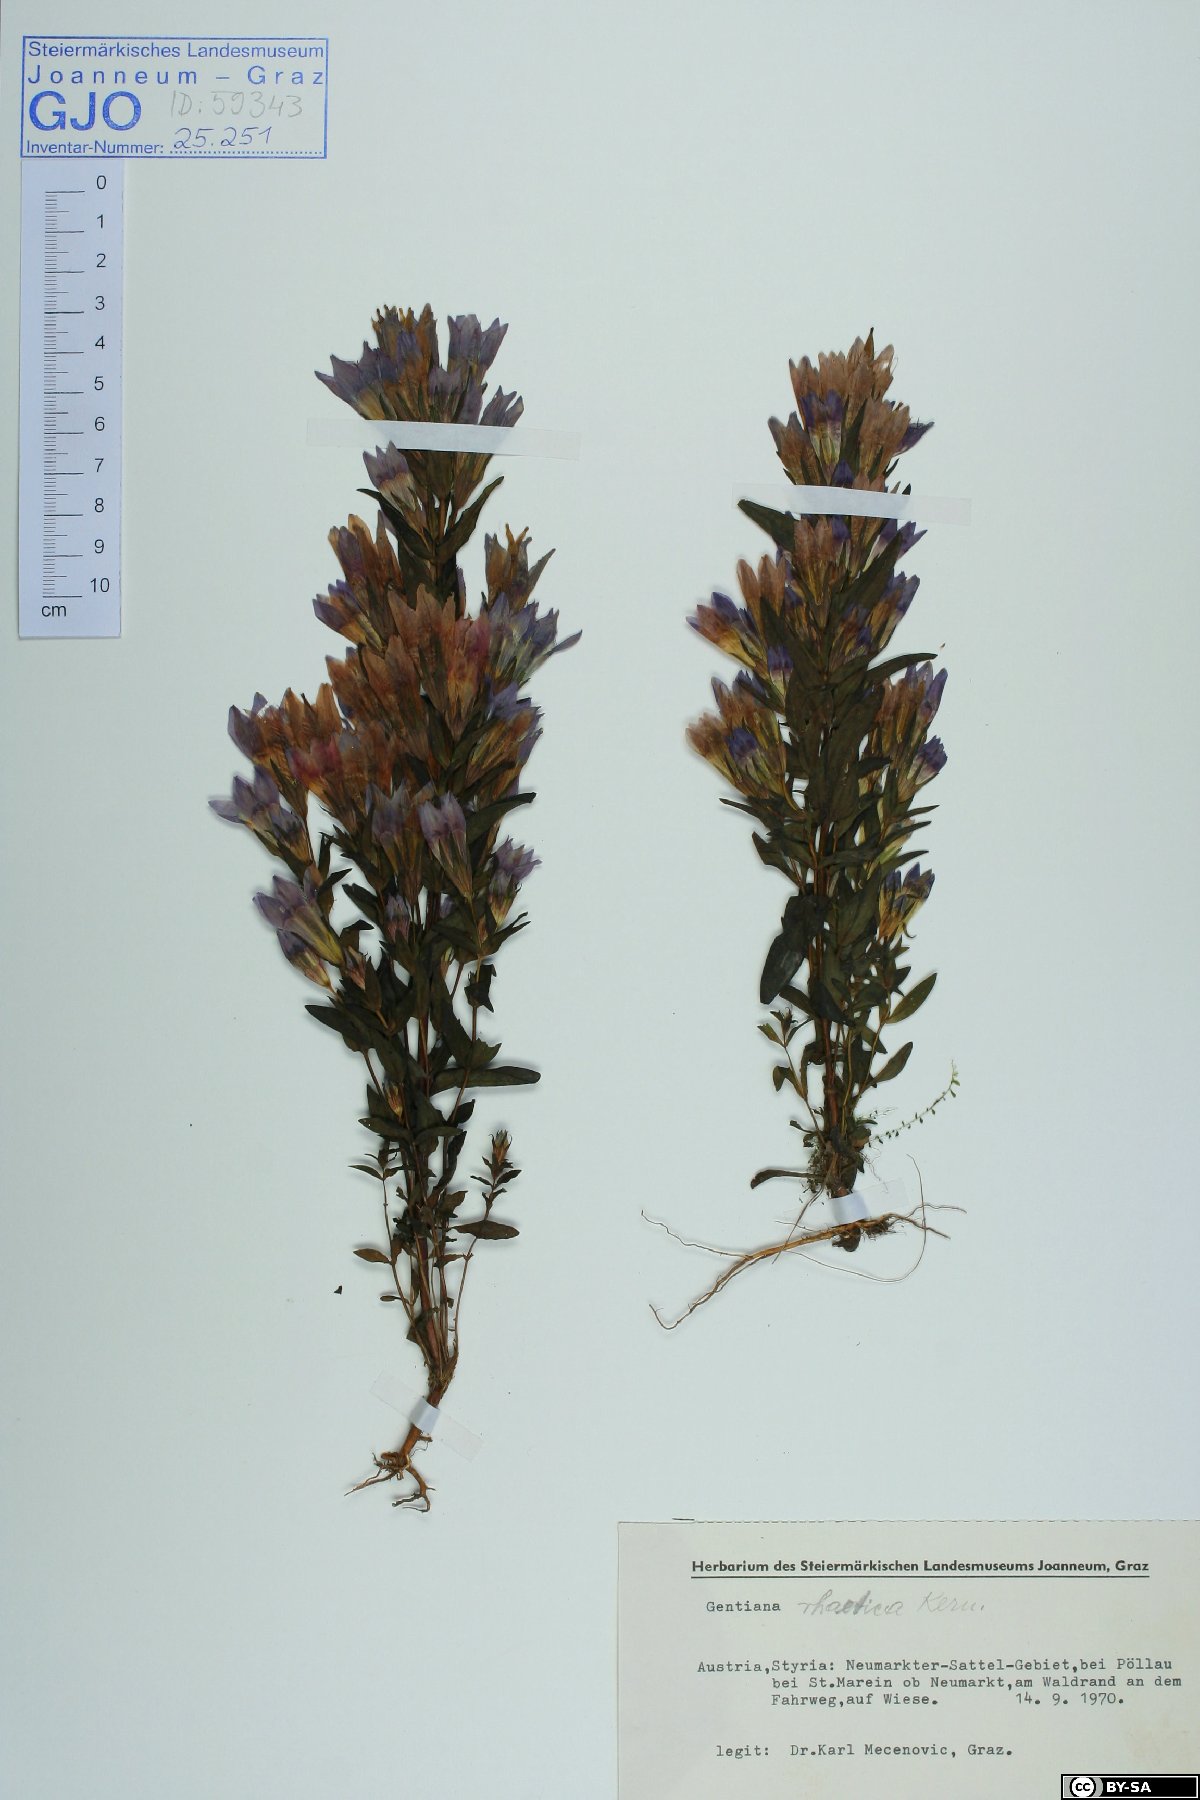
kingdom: Plantae
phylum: Tracheophyta
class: Magnoliopsida
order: Gentianales
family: Gentianaceae
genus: Gentianella
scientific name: Gentianella rhaetica
